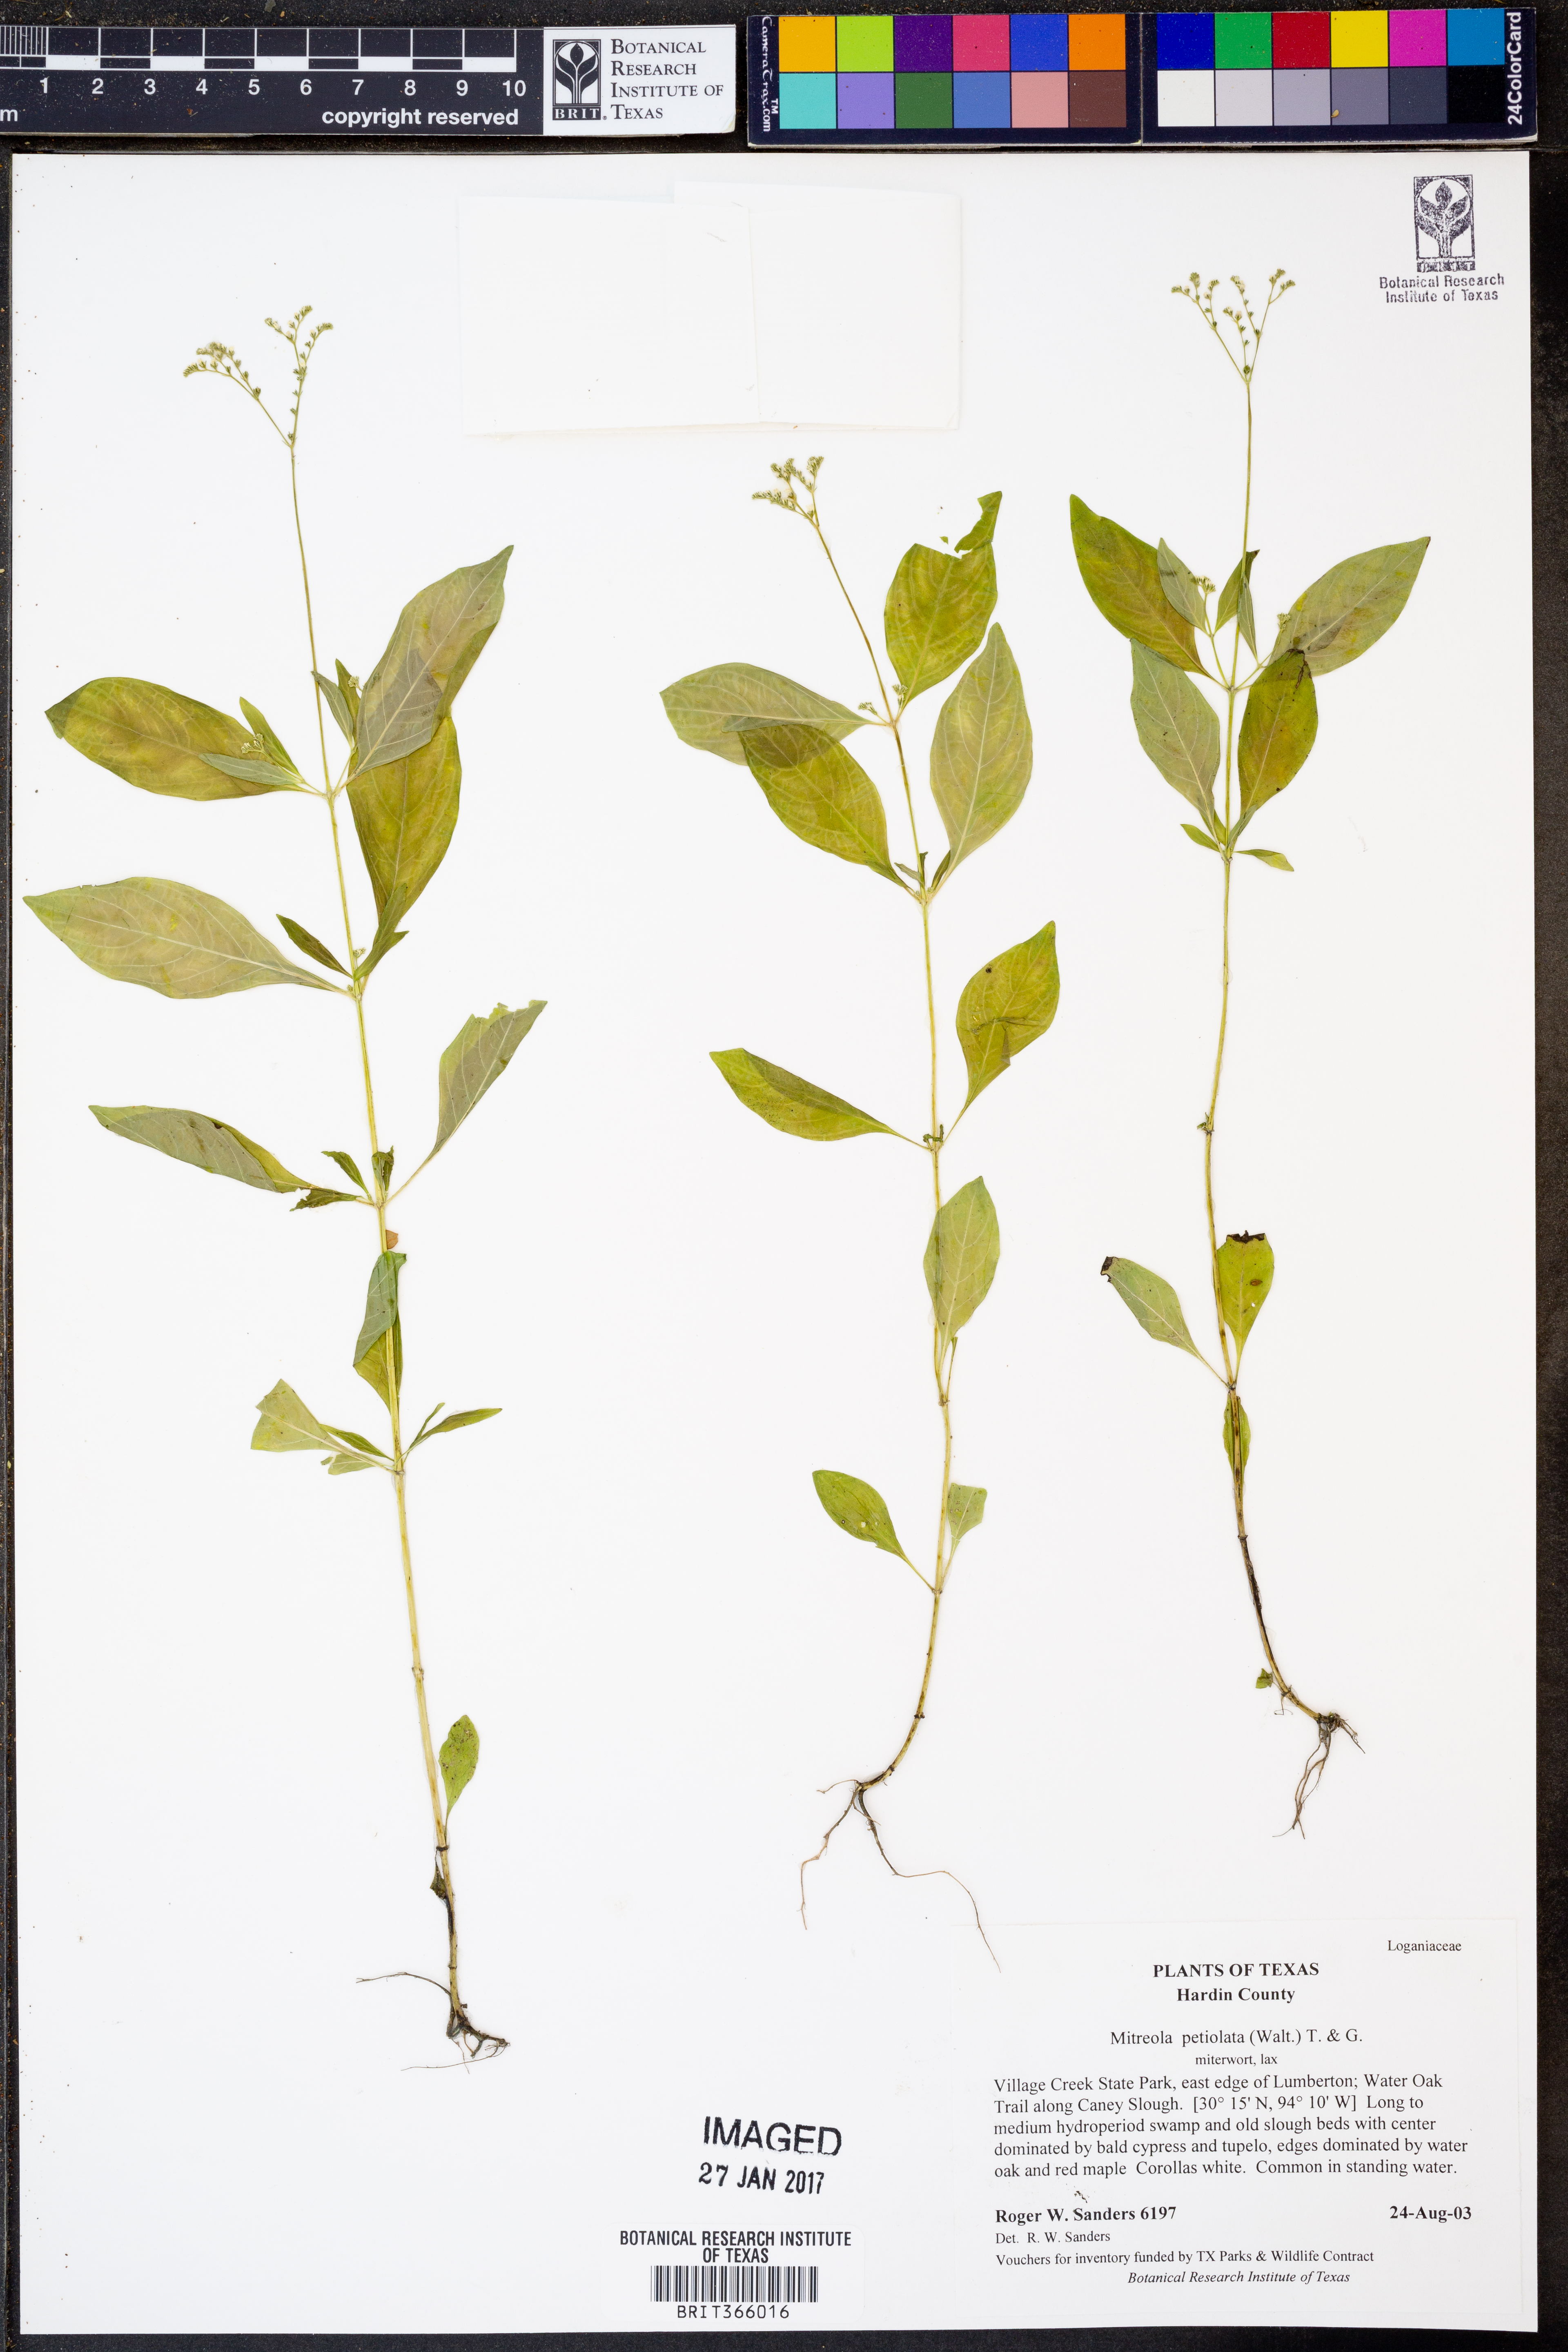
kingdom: Plantae
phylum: Tracheophyta
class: Magnoliopsida
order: Gentianales
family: Loganiaceae
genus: Mitreola
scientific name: Mitreola petiolata
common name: Lax hornpod
